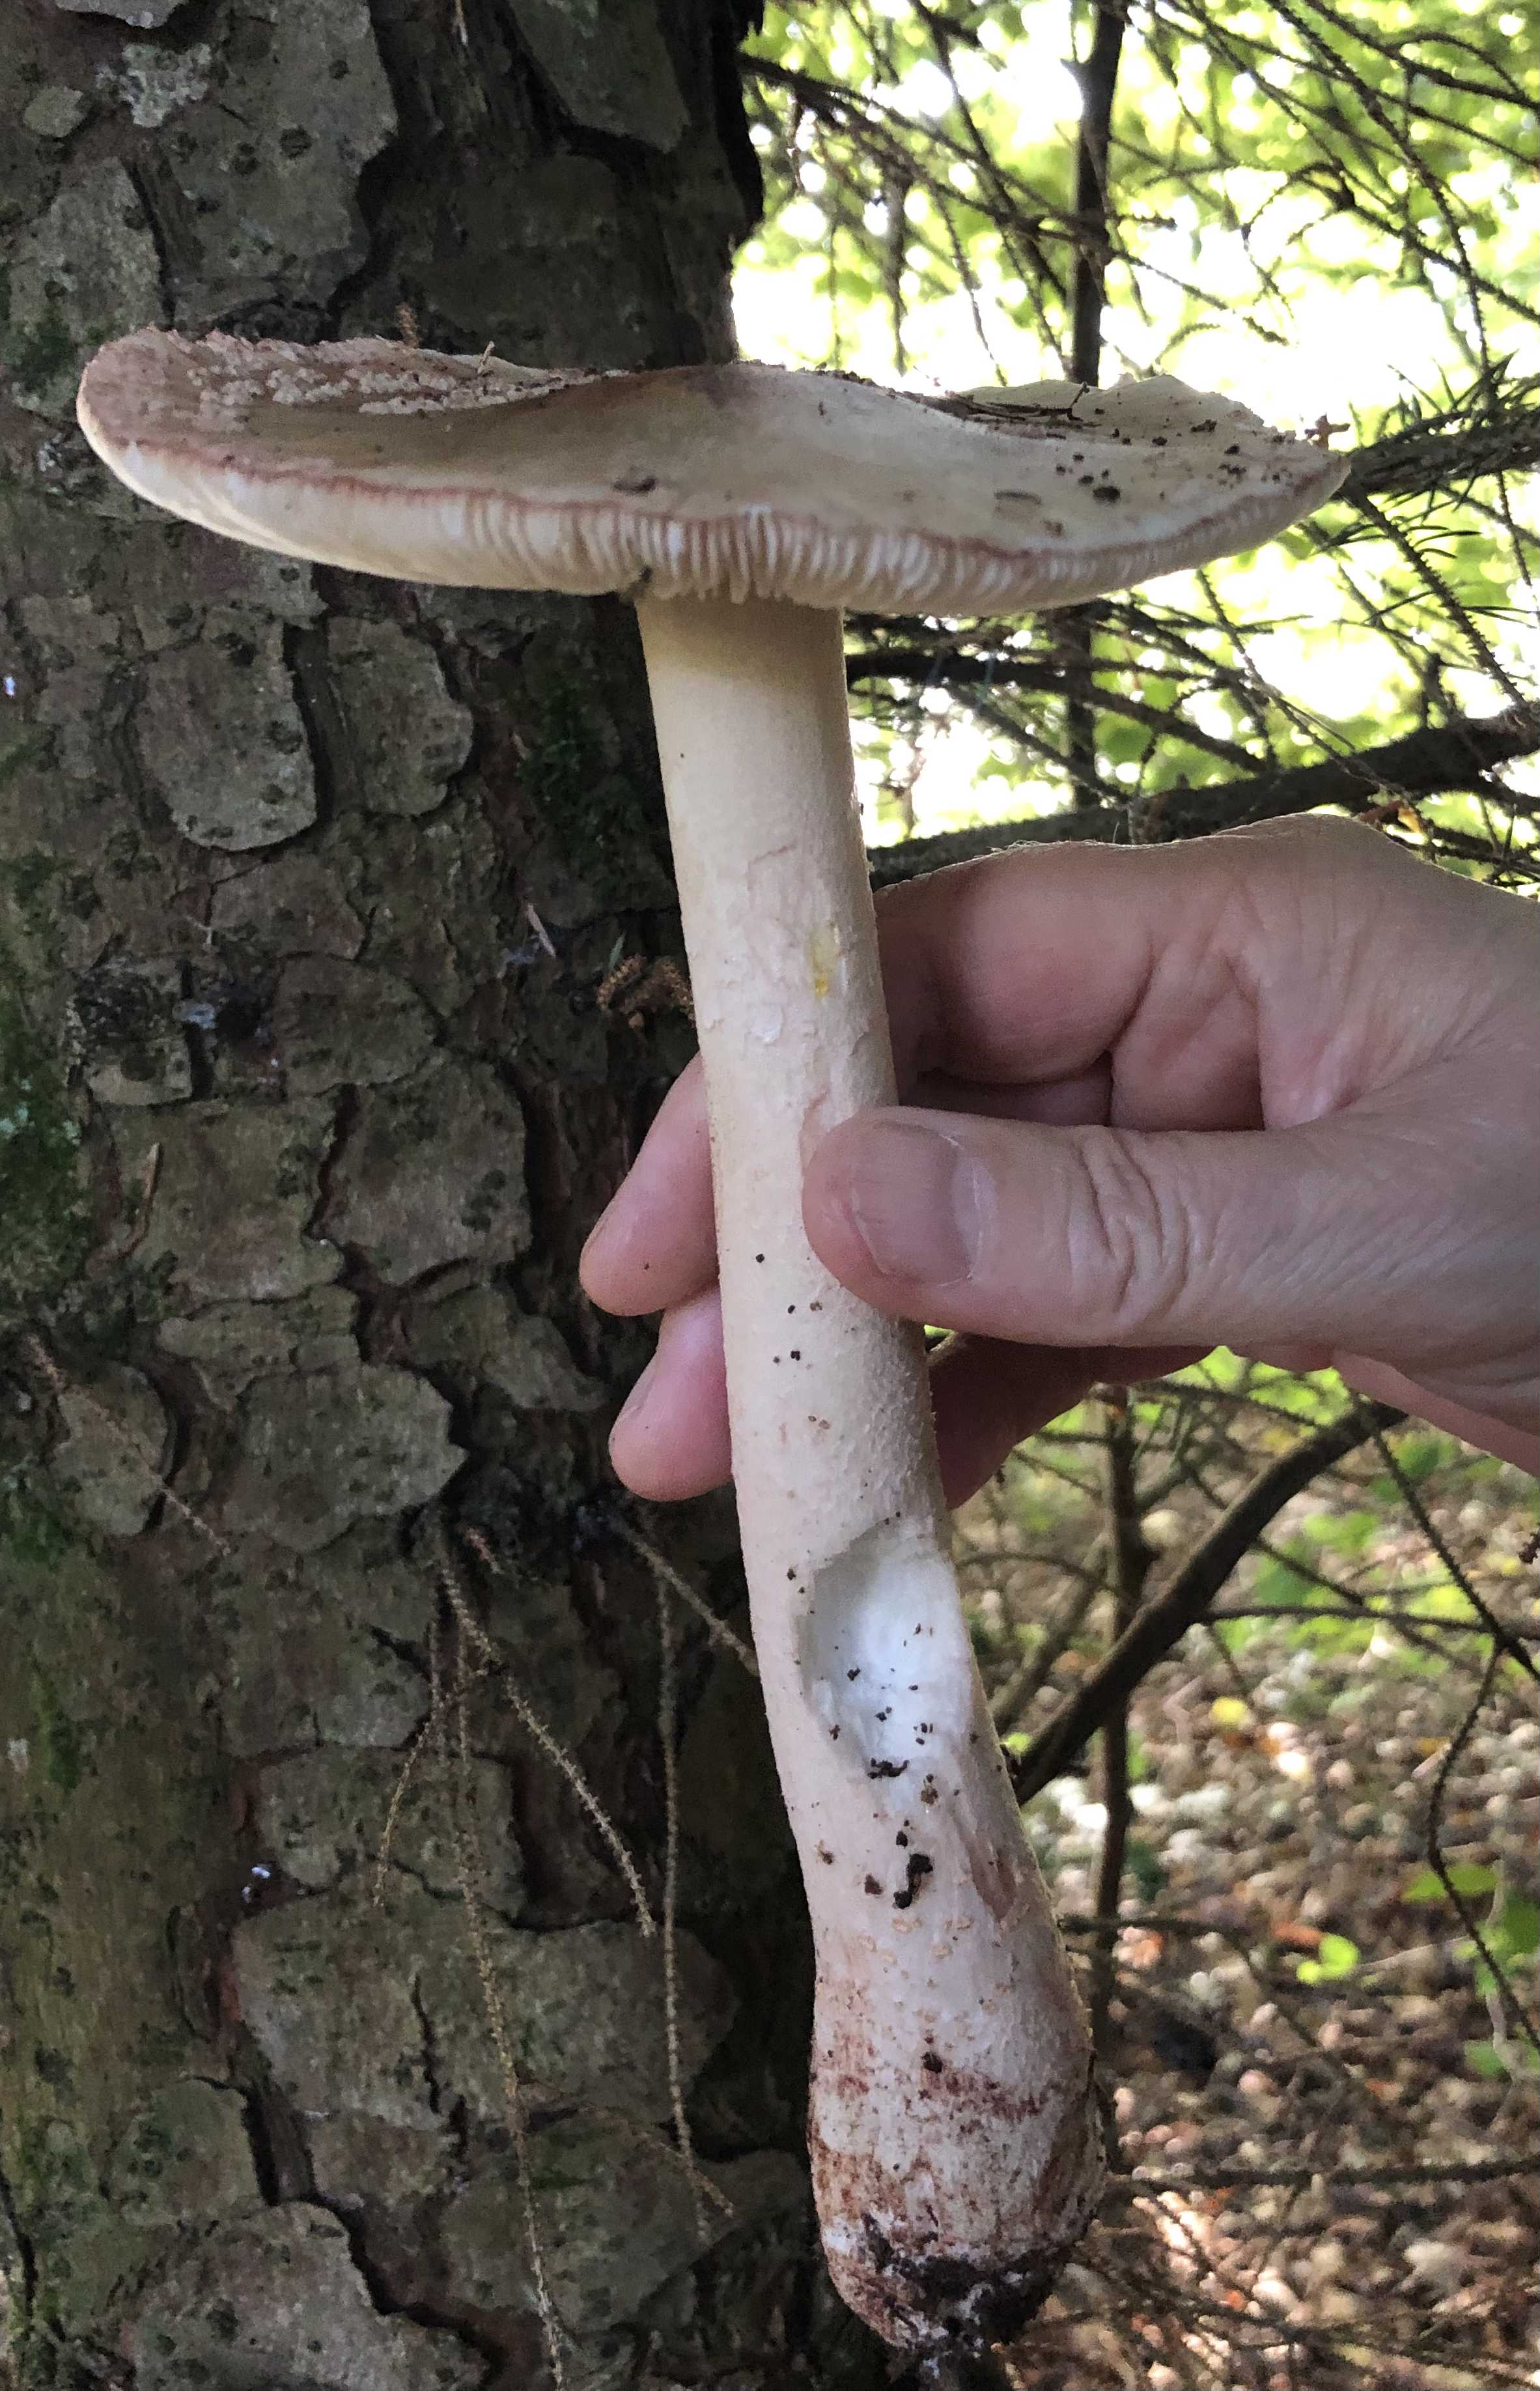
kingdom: Fungi
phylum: Basidiomycota
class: Agaricomycetes
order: Agaricales
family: Amanitaceae
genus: Amanita
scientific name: Amanita rubescens
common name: rødmende fluesvamp
